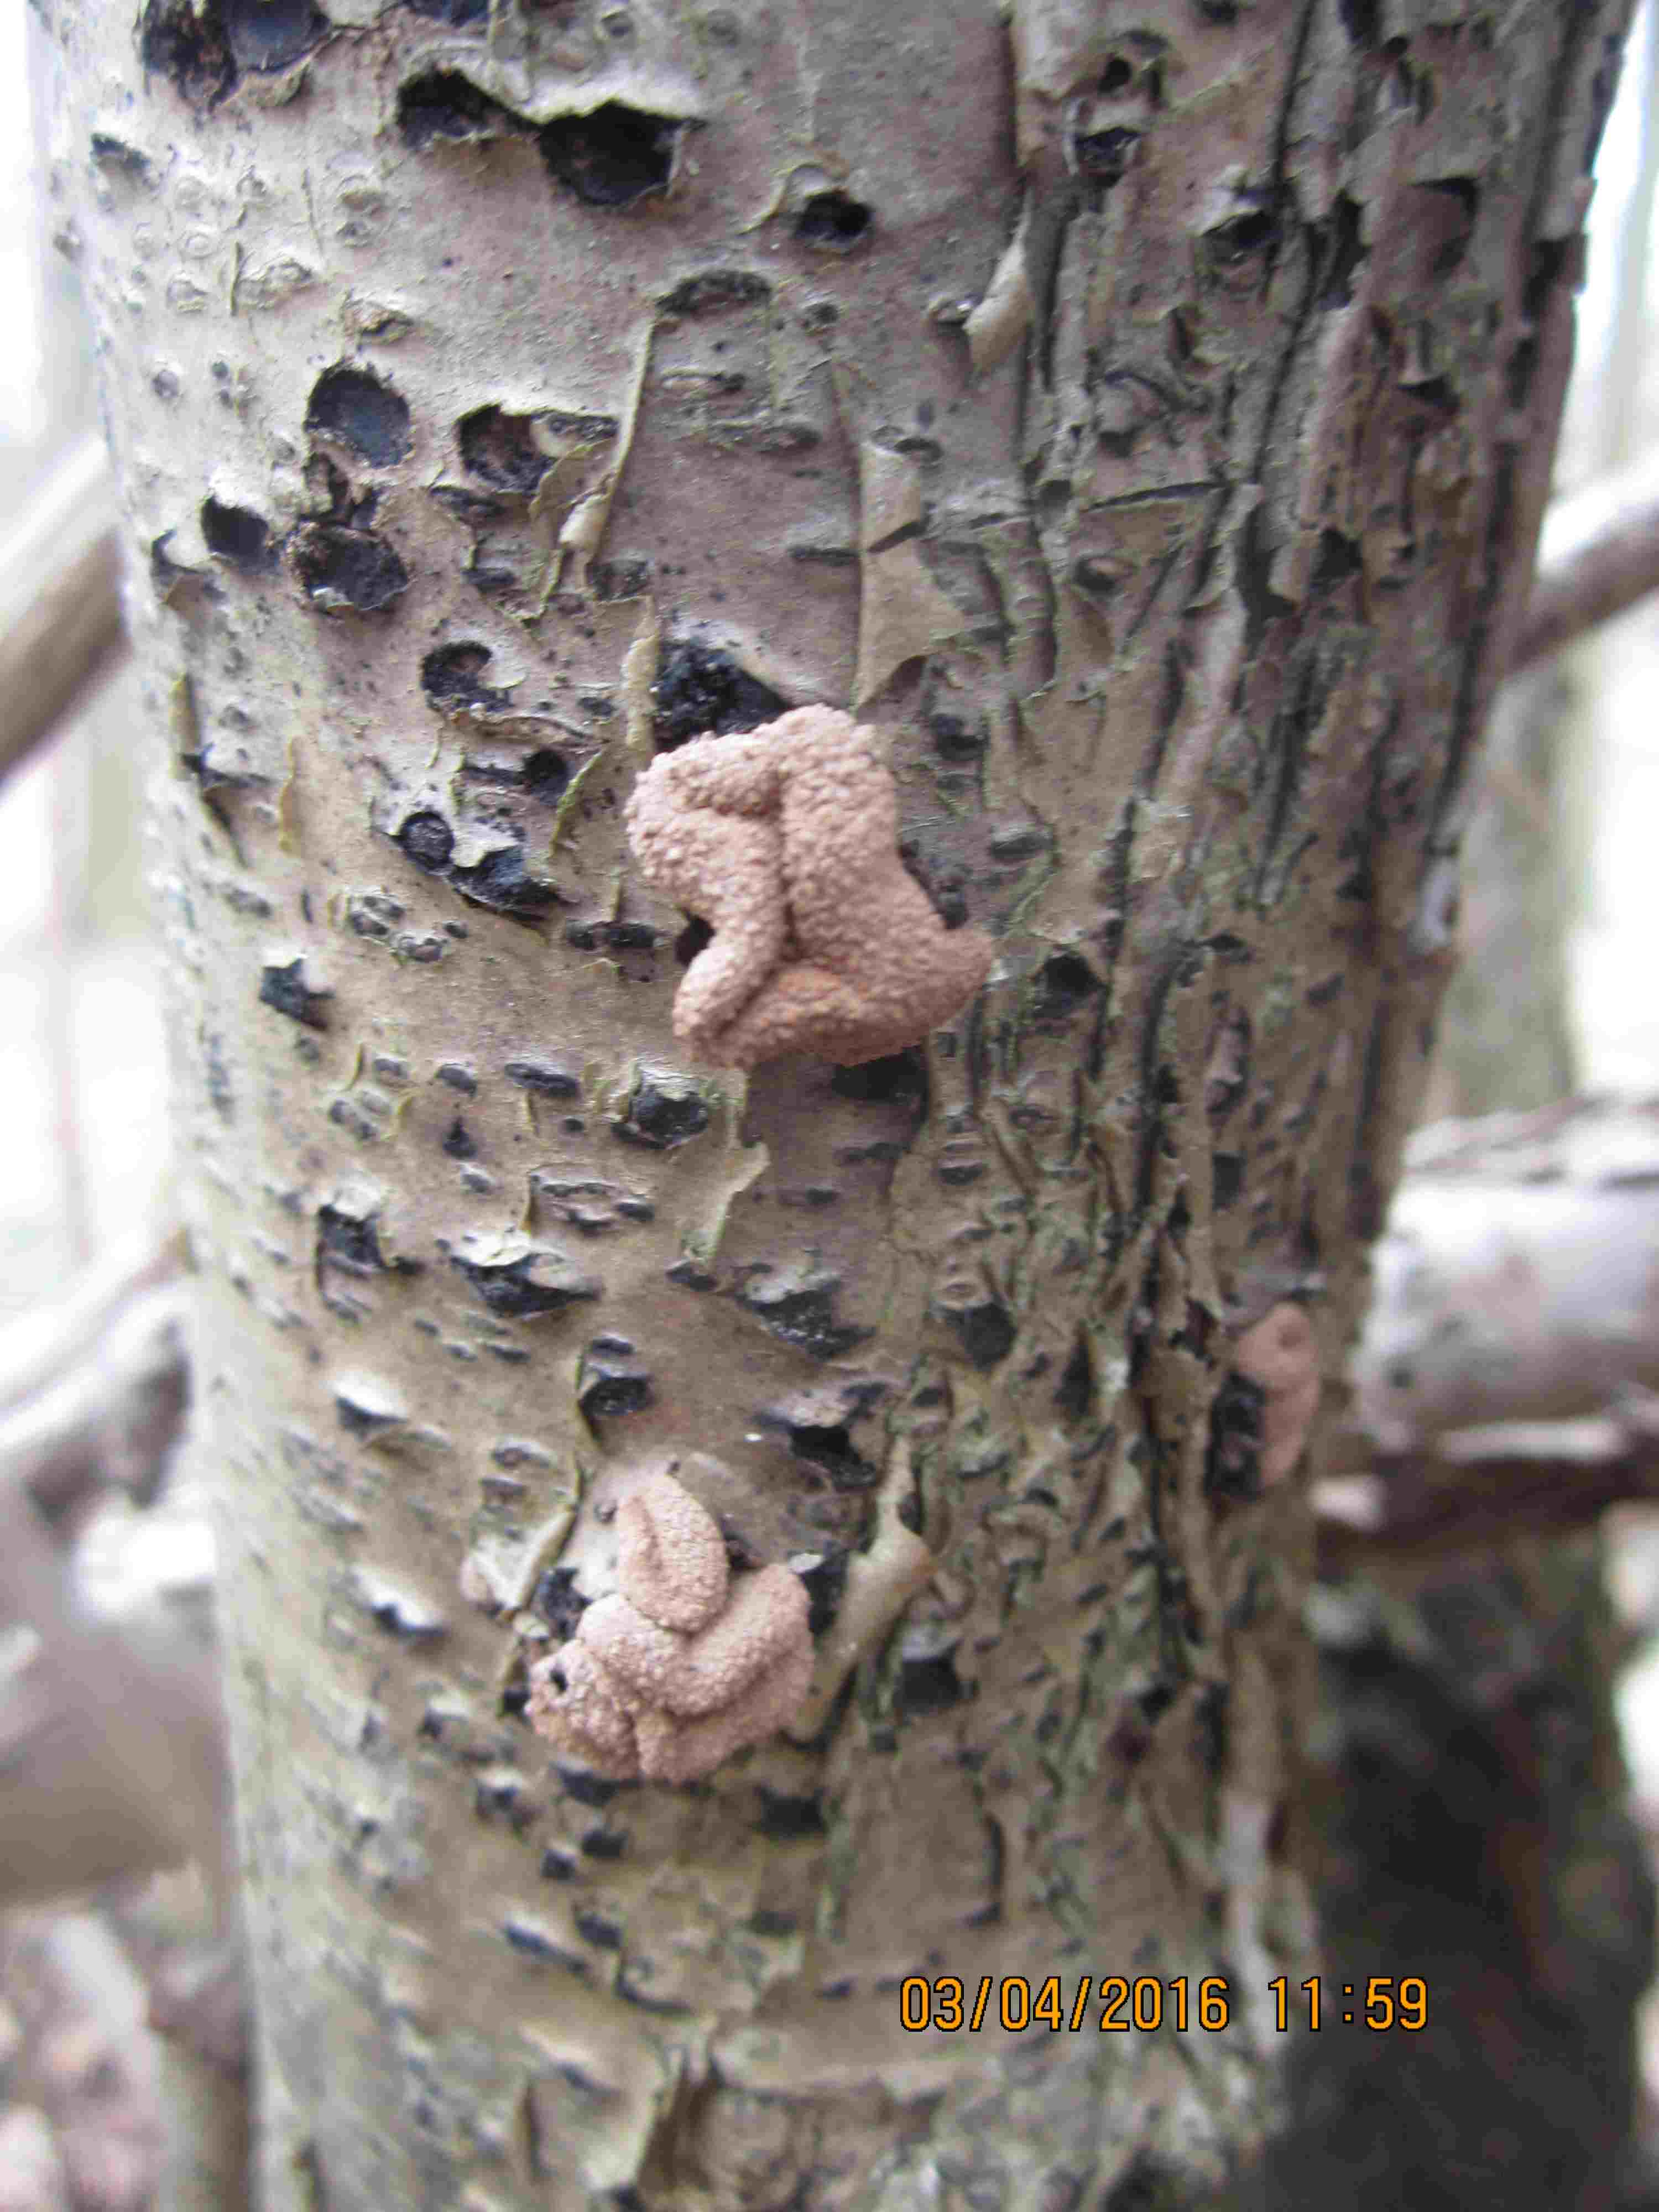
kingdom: Fungi
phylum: Ascomycota
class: Leotiomycetes
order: Helotiales
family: Cenangiaceae
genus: Encoelia
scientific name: Encoelia furfuracea
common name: hassel-læderskive
